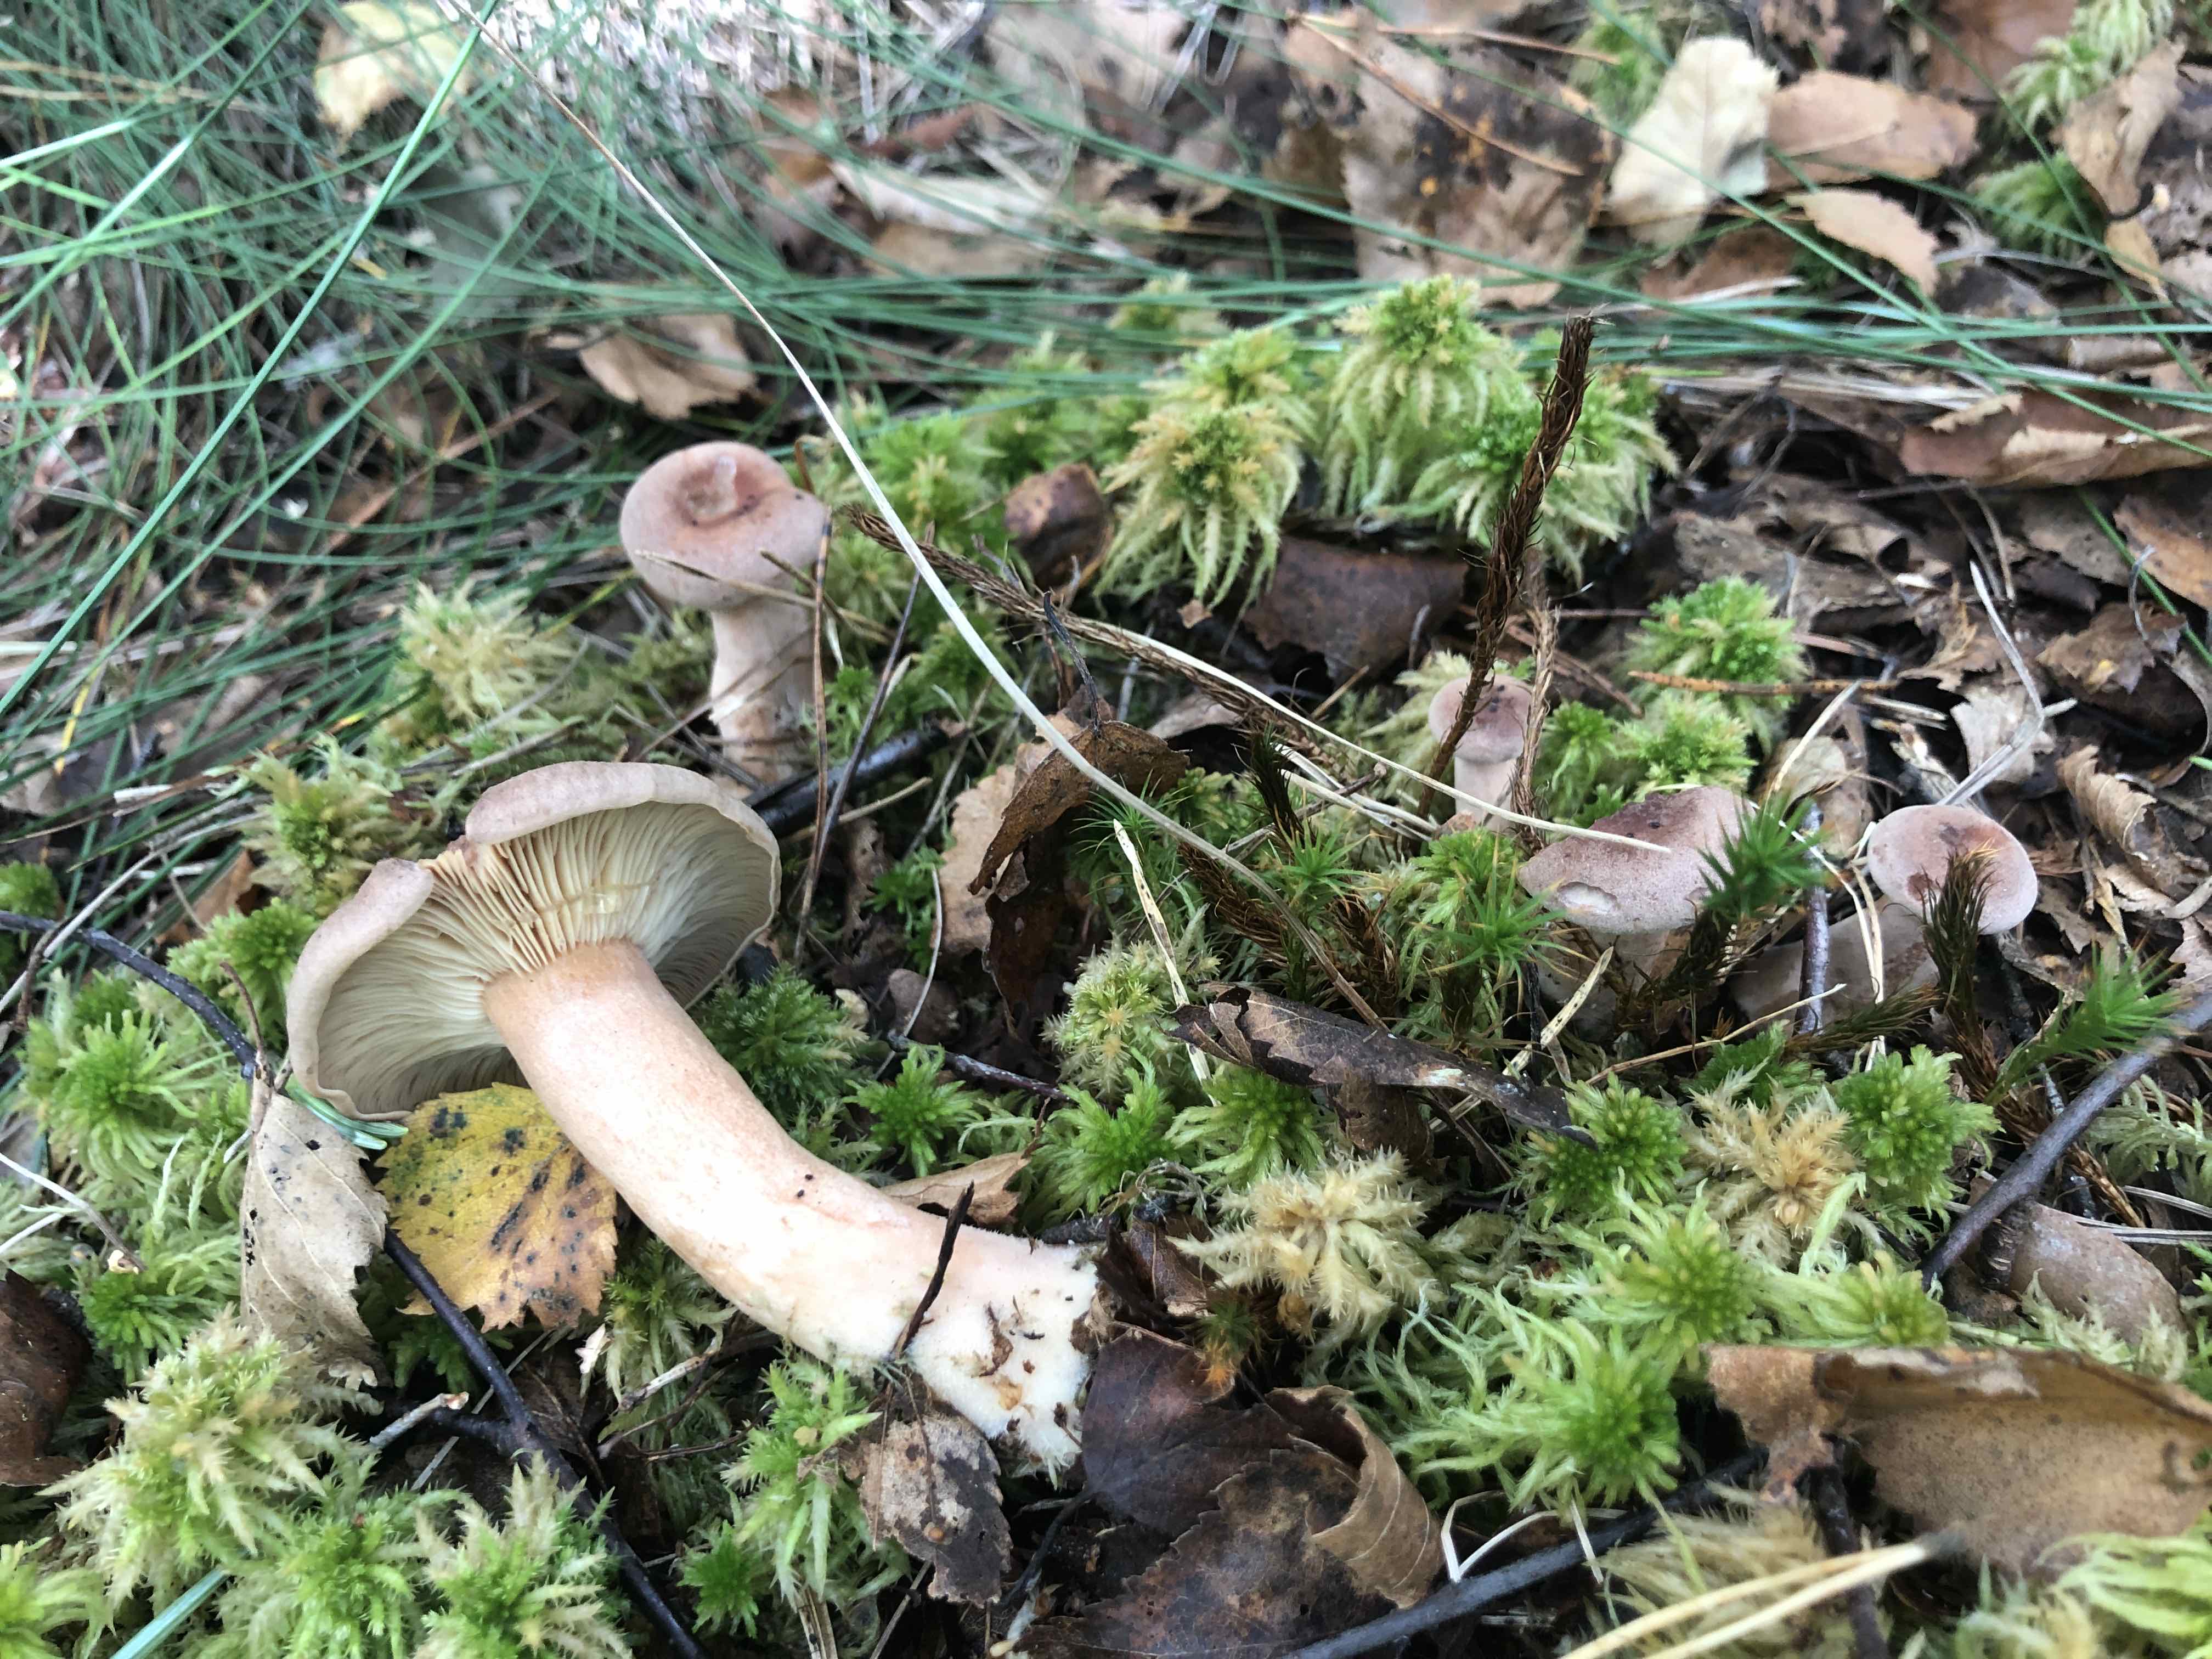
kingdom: Fungi
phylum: Basidiomycota
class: Agaricomycetes
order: Russulales
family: Russulaceae
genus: Lactarius
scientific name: Lactarius helvus
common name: mose-mælkehat
